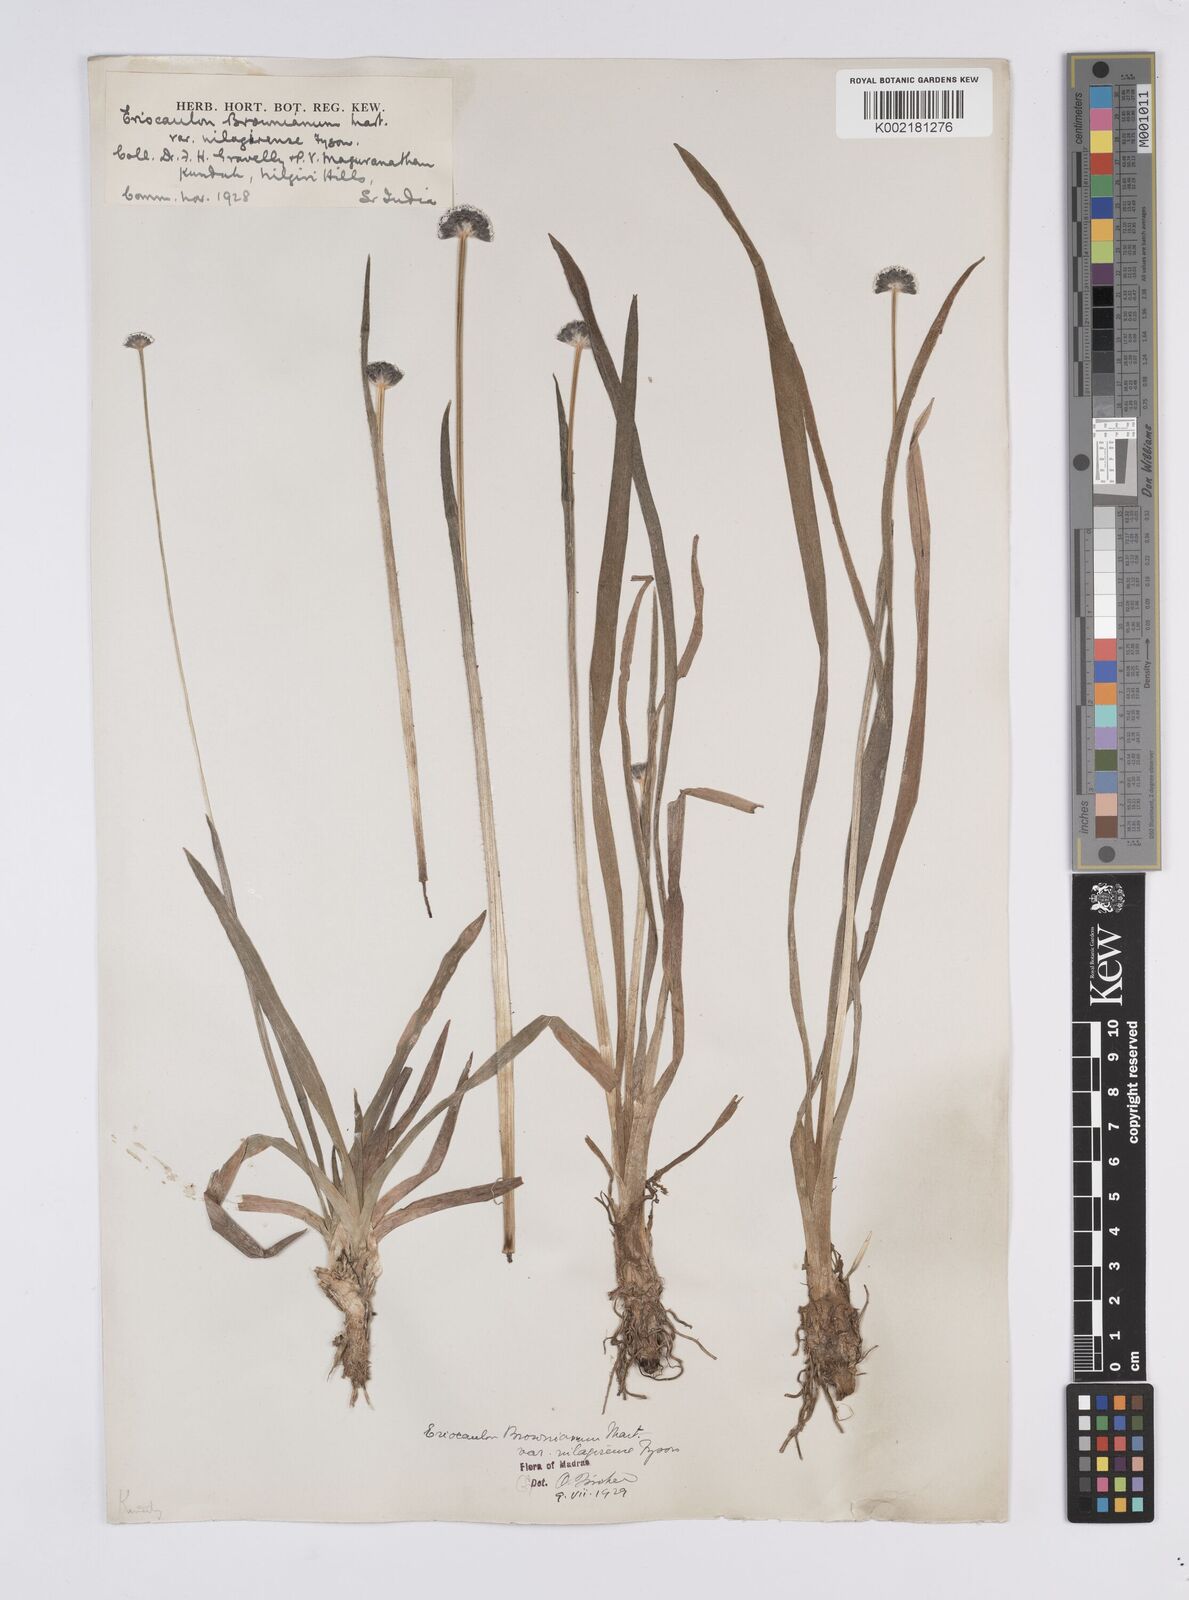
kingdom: Plantae
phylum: Tracheophyta
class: Liliopsida
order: Poales
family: Eriocaulaceae
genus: Eriocaulon
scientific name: Eriocaulon brownianum
